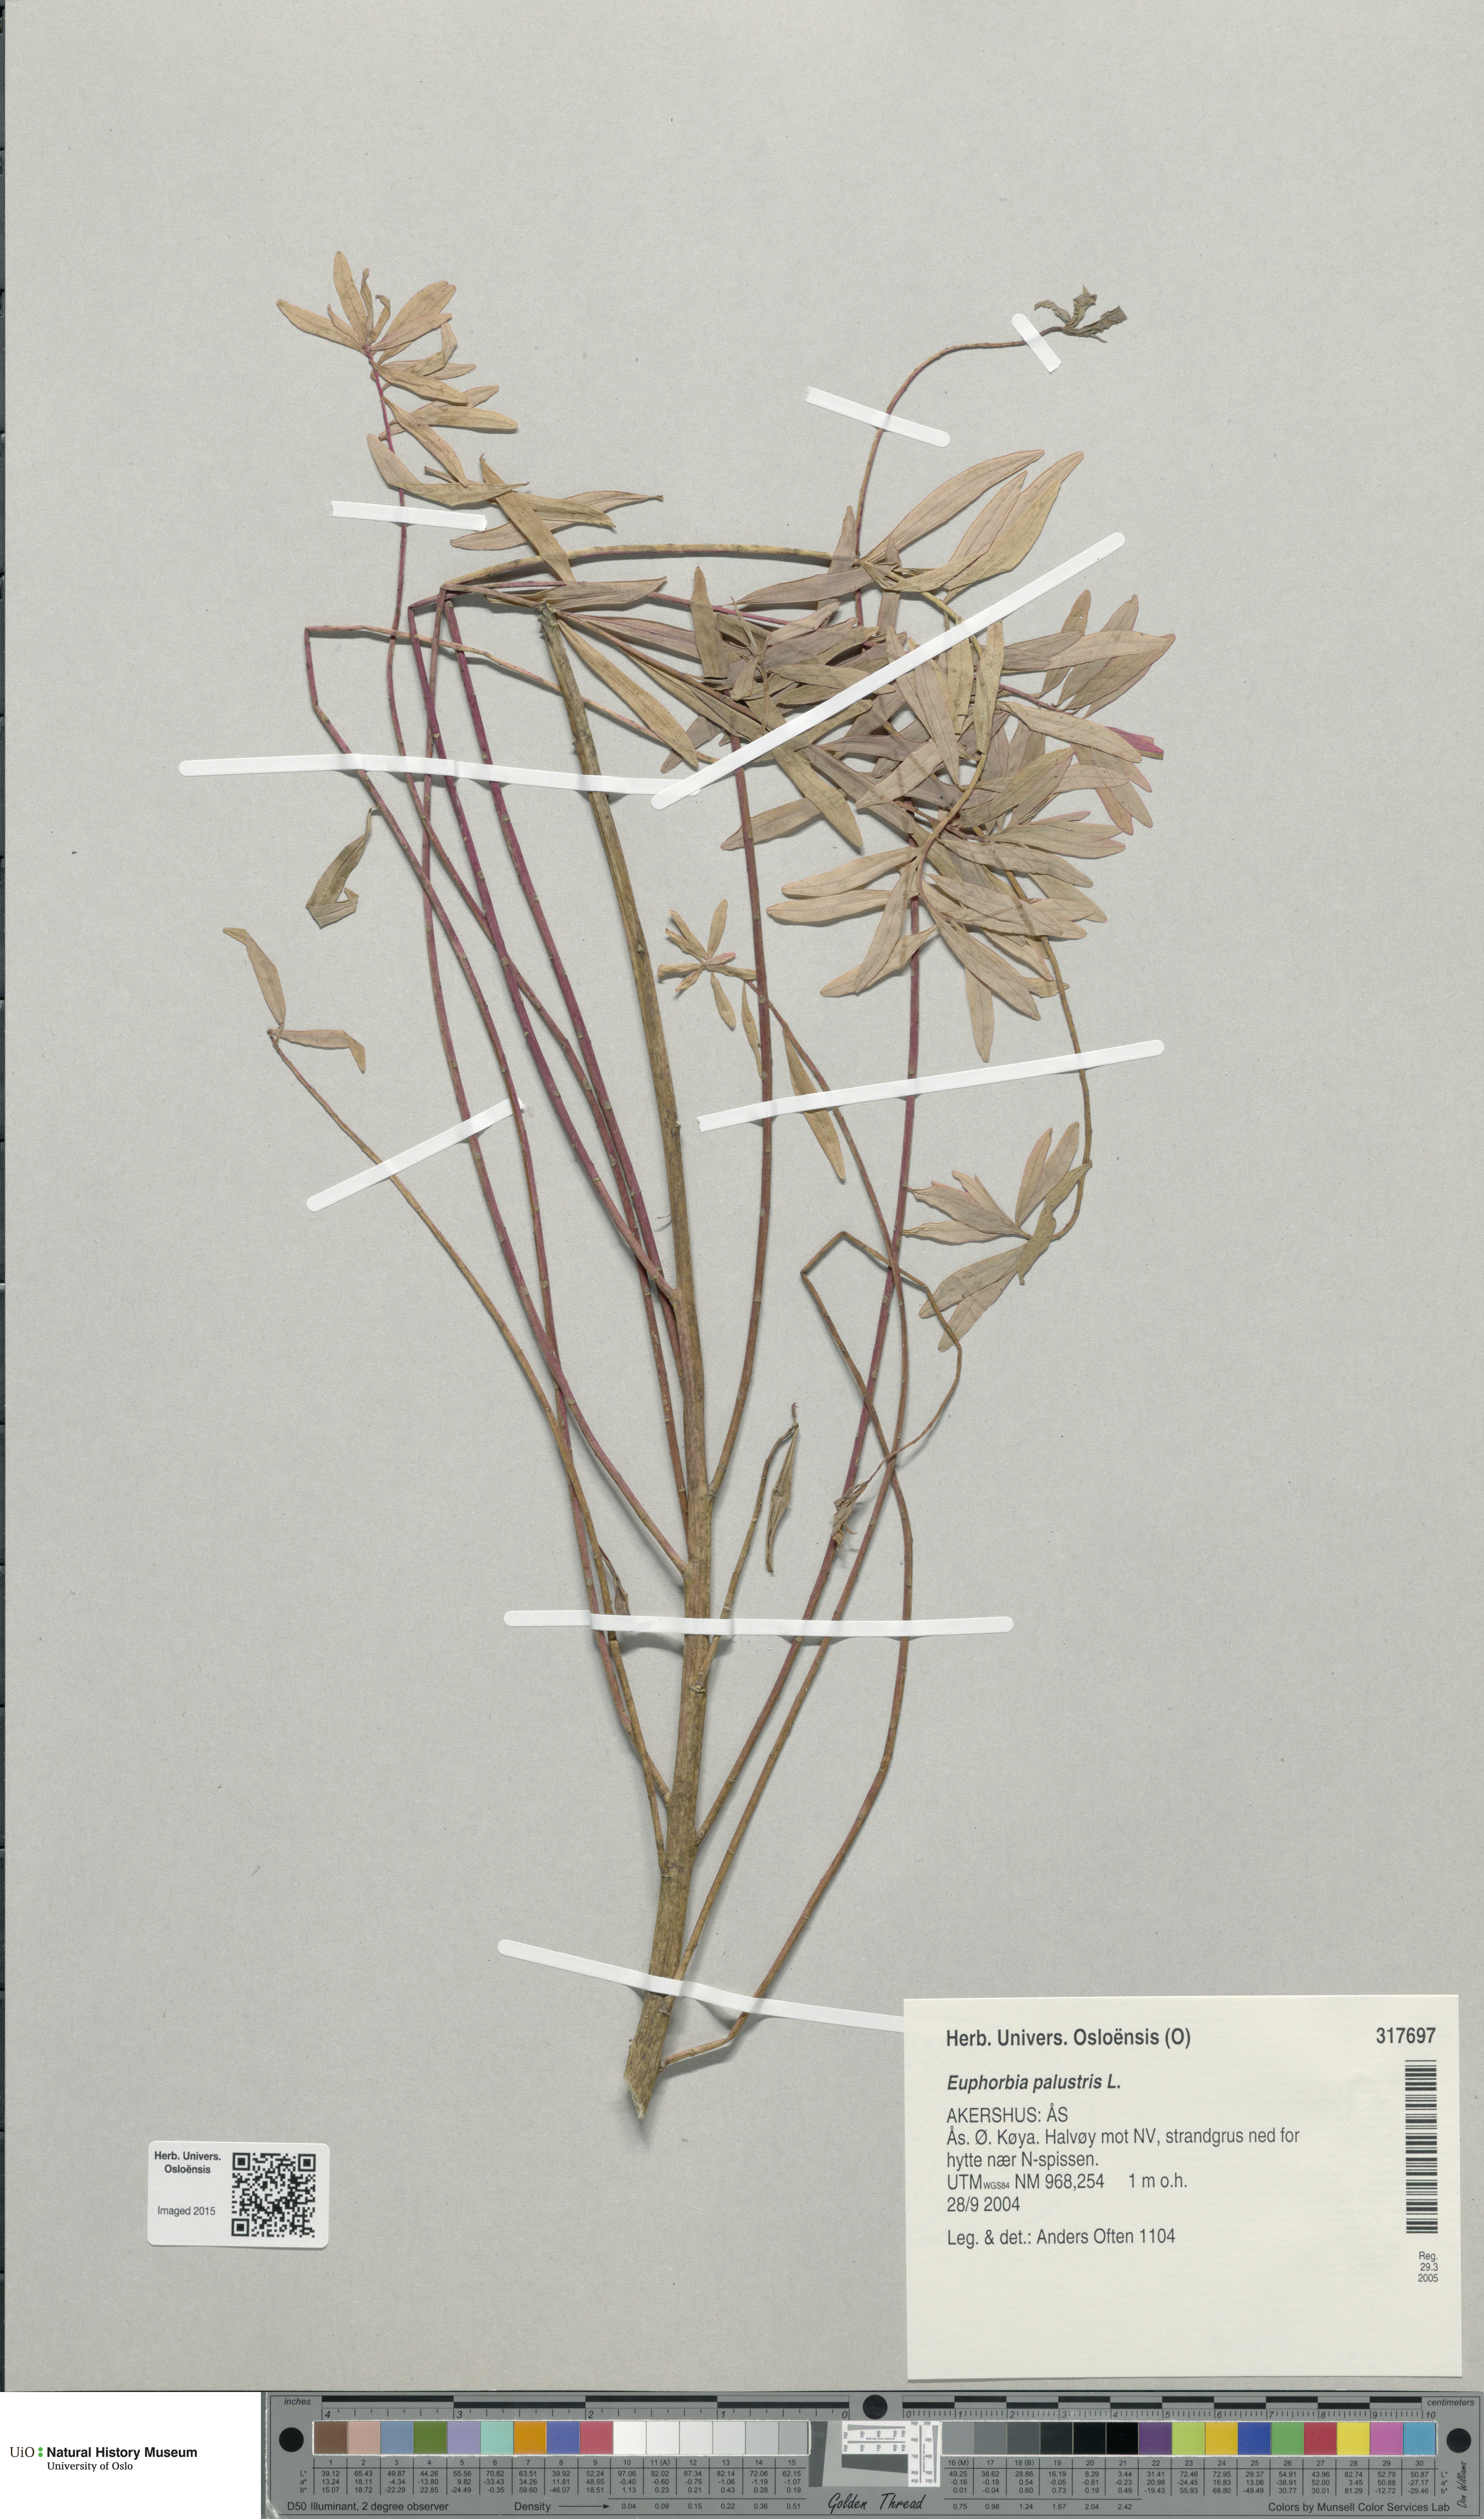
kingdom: Plantae
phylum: Tracheophyta
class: Magnoliopsida
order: Malpighiales
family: Euphorbiaceae
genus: Euphorbia
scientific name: Euphorbia palustris
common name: Marsh spurge
